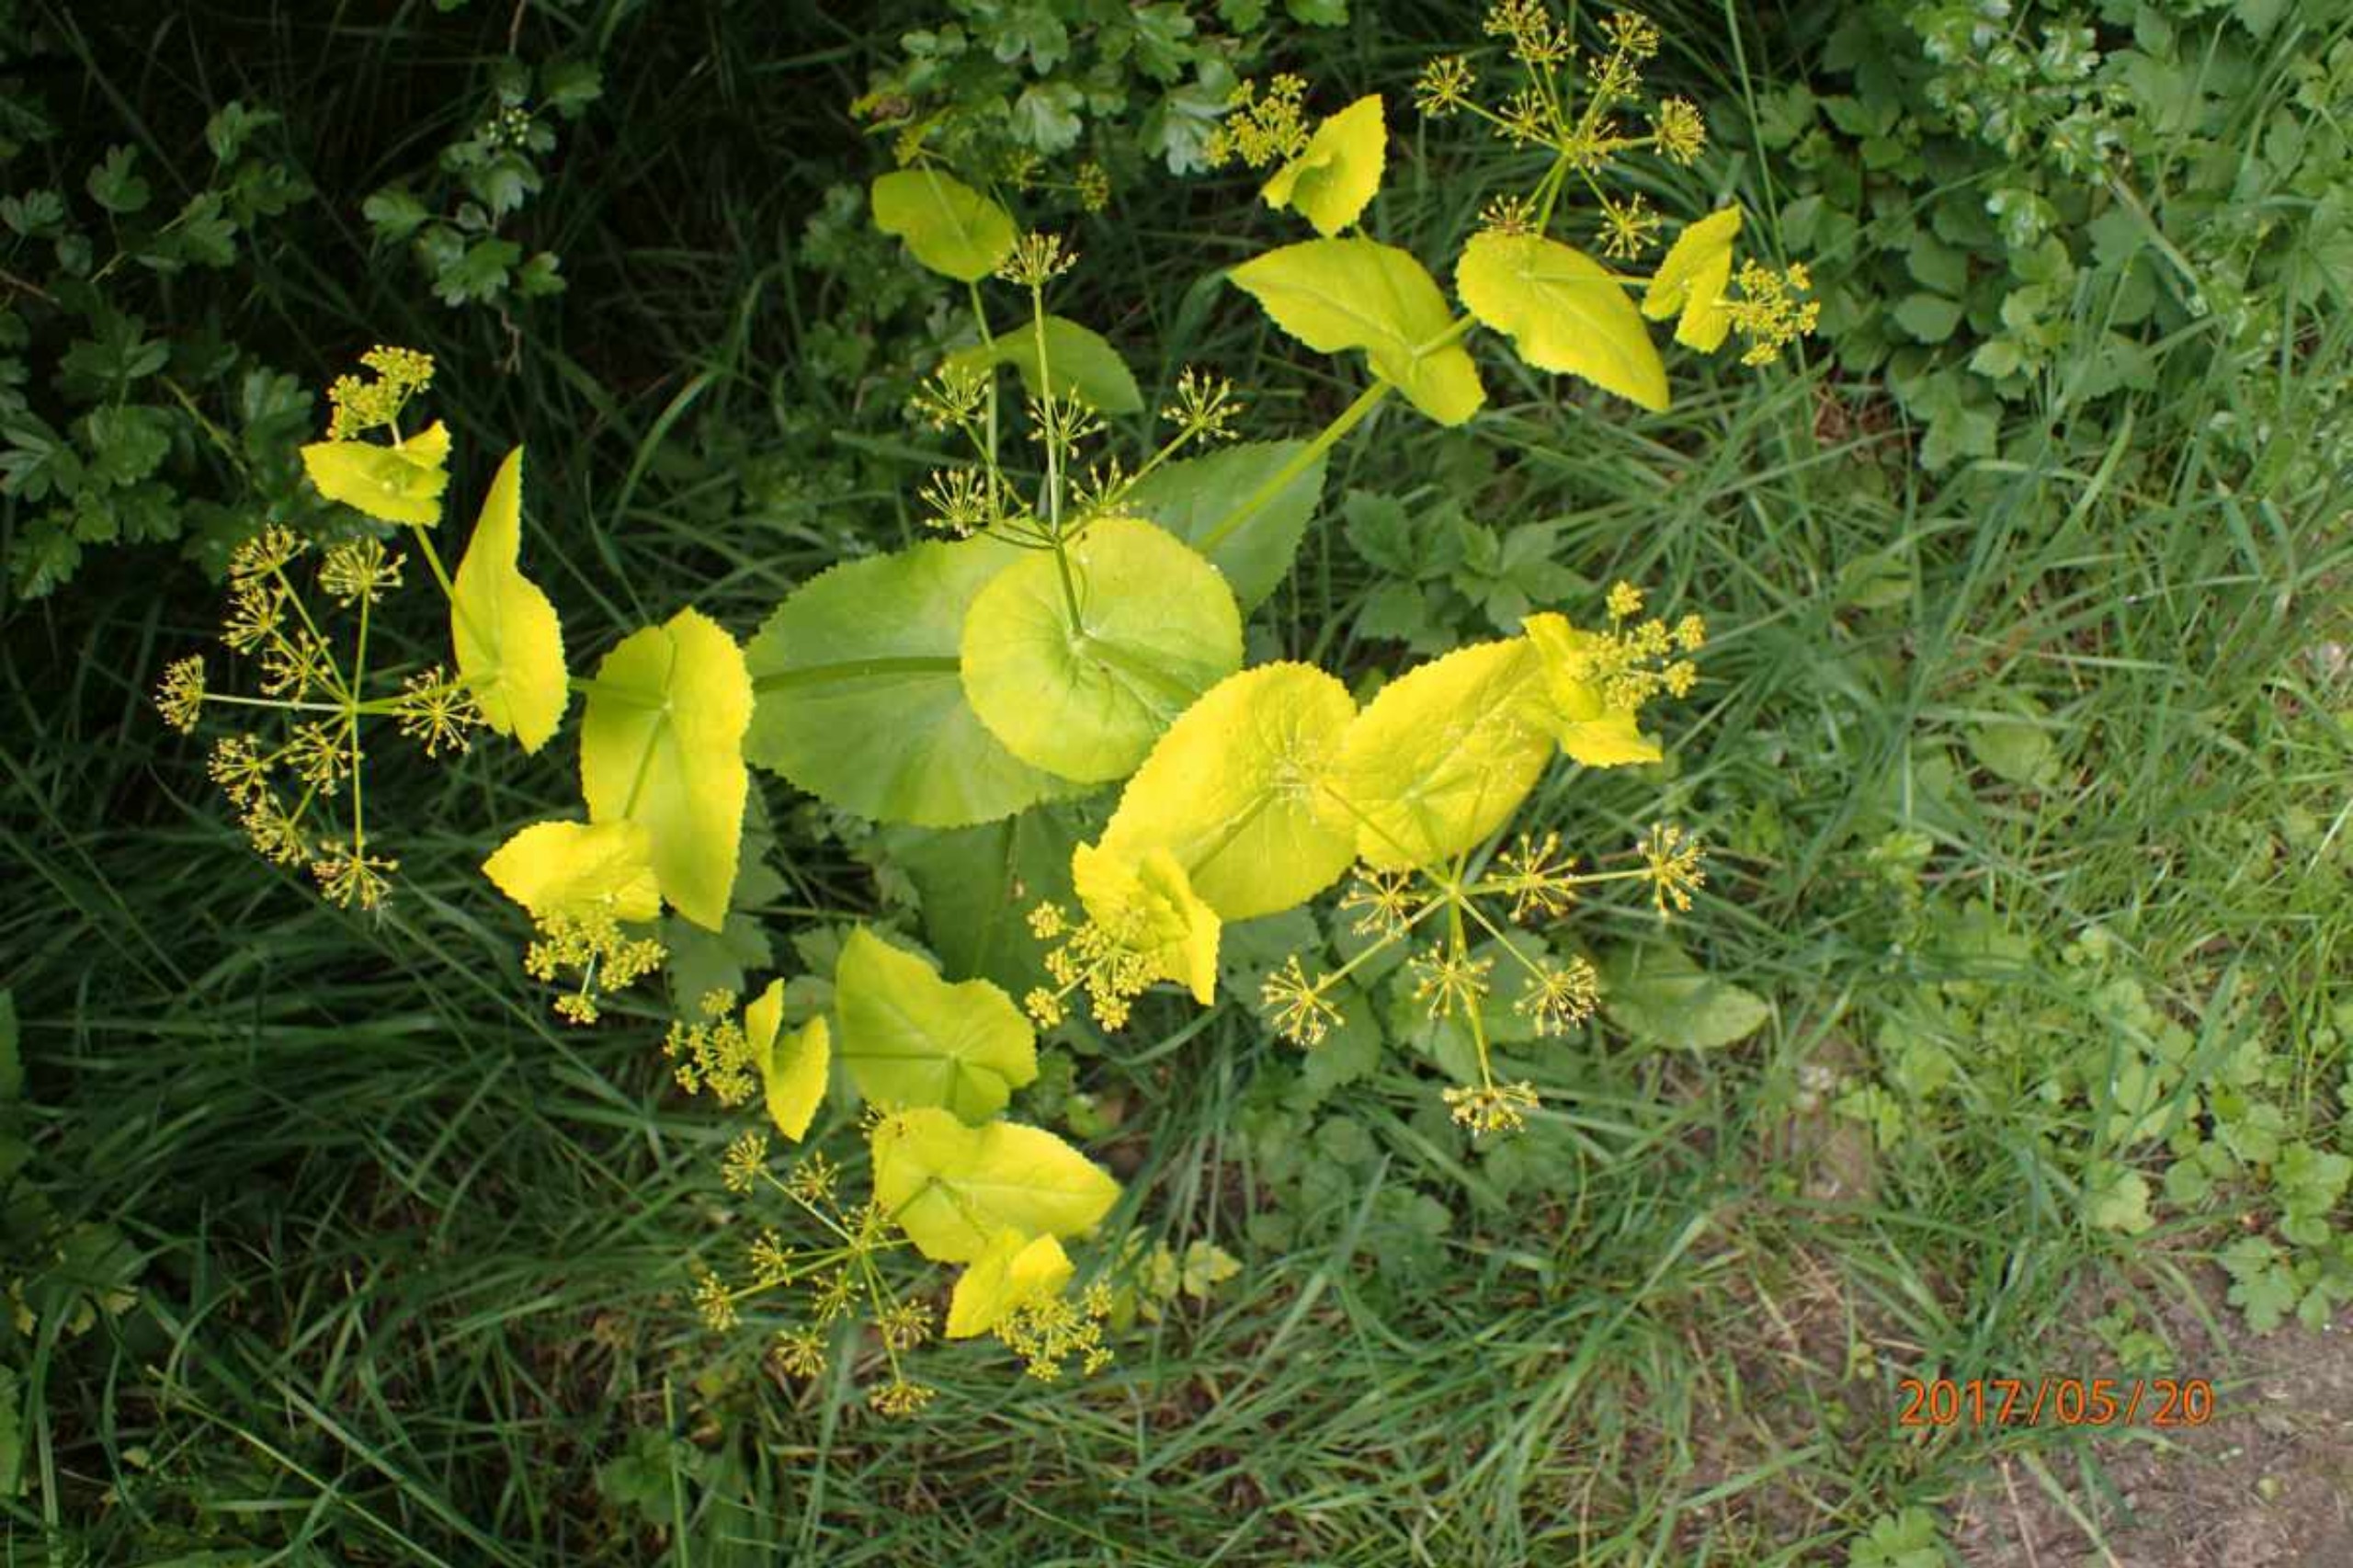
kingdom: Plantae
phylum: Tracheophyta
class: Magnoliopsida
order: Apiales
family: Apiaceae
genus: Smyrnium
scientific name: Smyrnium perfoliatum
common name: Lundgylden
